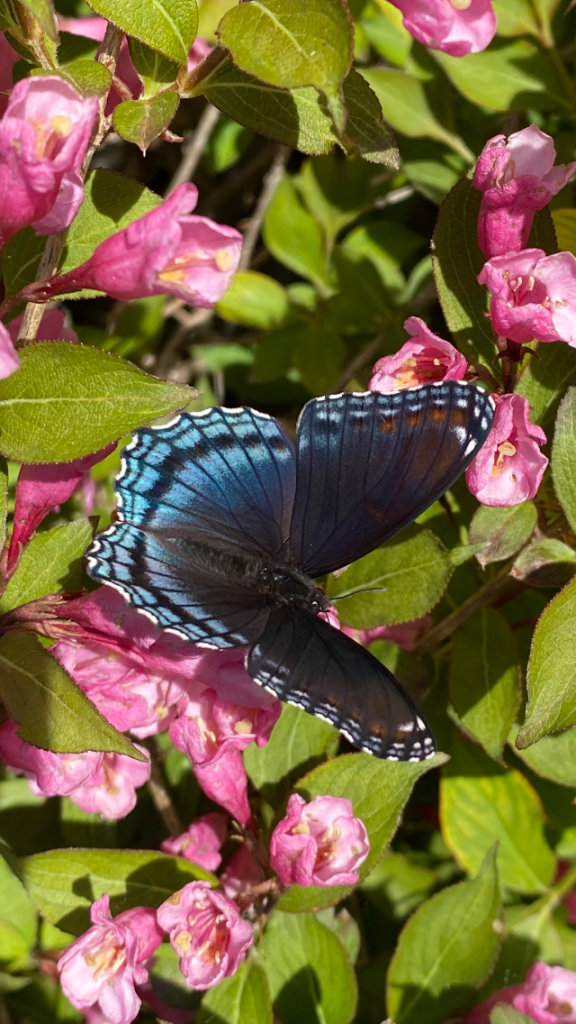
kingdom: Animalia
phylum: Arthropoda
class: Insecta
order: Lepidoptera
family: Nymphalidae
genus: Limenitis
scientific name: Limenitis astyanax
